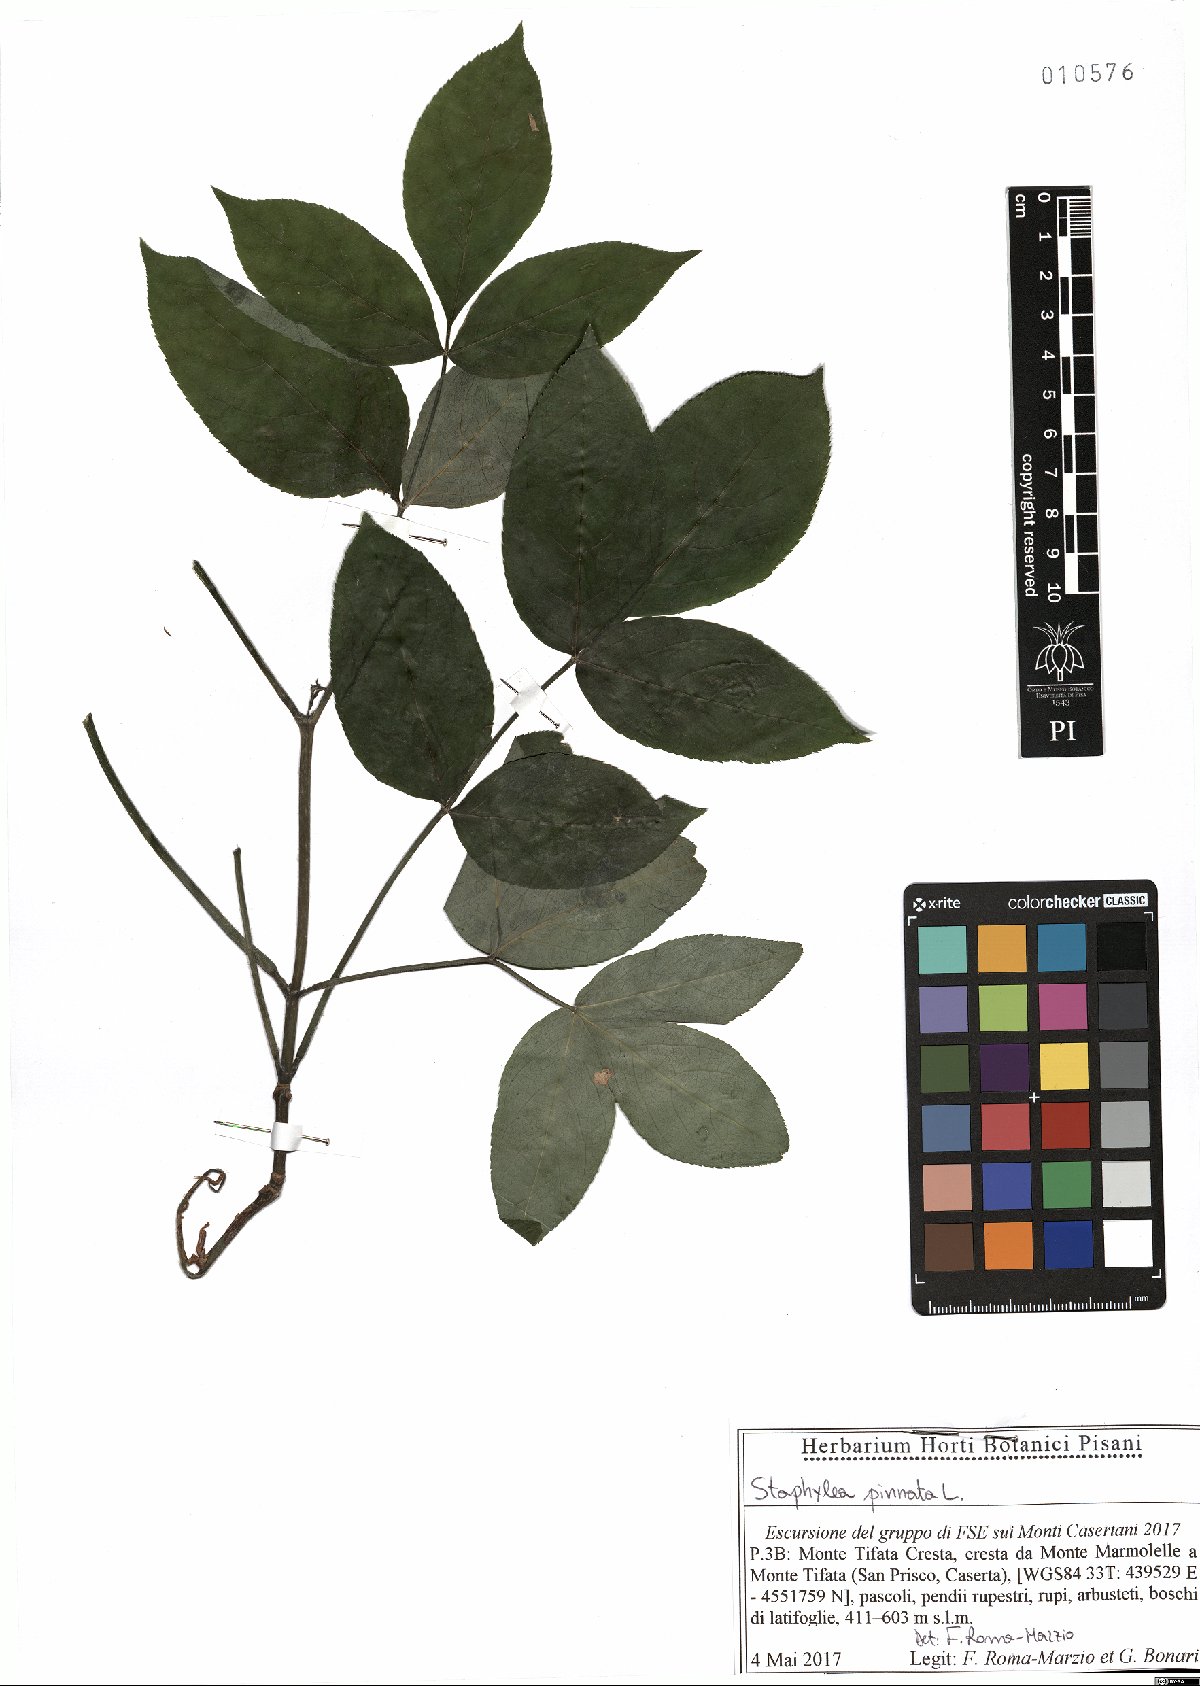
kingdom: Plantae
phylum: Tracheophyta
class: Magnoliopsida
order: Crossosomatales
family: Staphyleaceae
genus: Staphylea
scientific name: Staphylea pinnata
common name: Bladdernut
